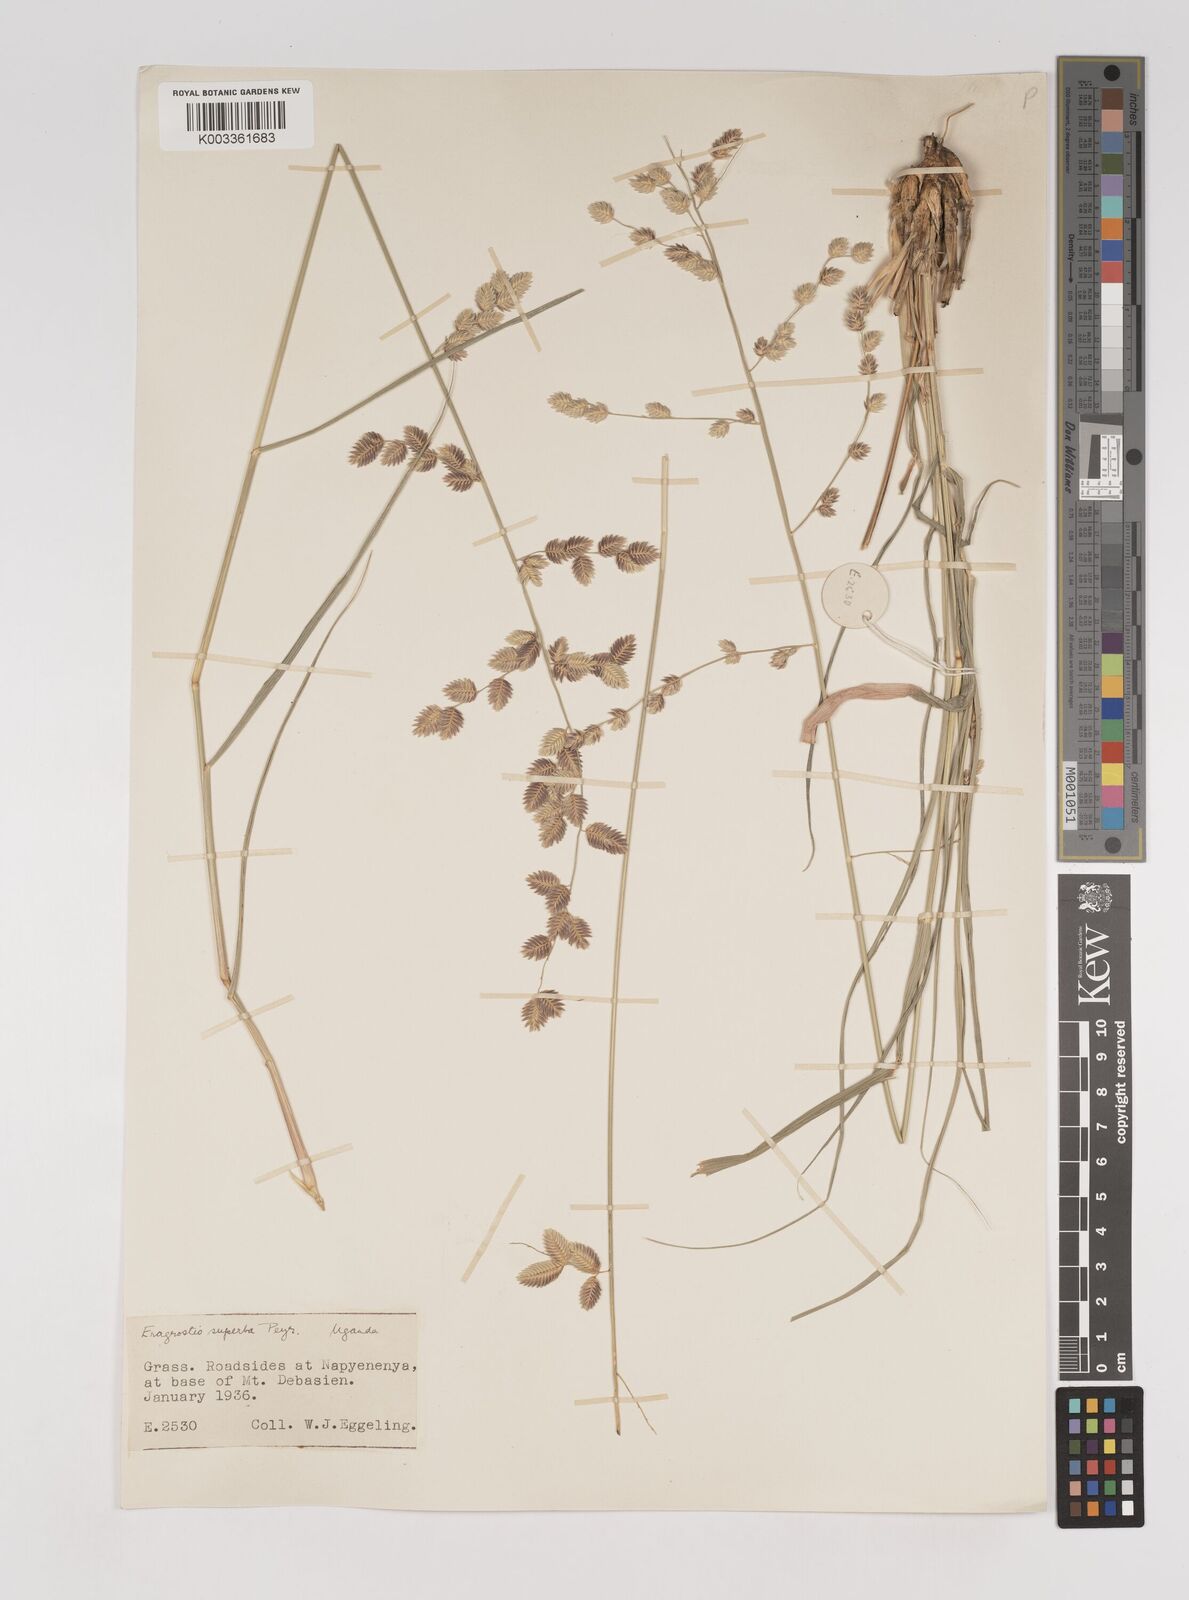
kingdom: Plantae
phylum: Tracheophyta
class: Liliopsida
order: Poales
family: Poaceae
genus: Eragrostis
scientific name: Eragrostis superba
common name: Wilman lovegrass
